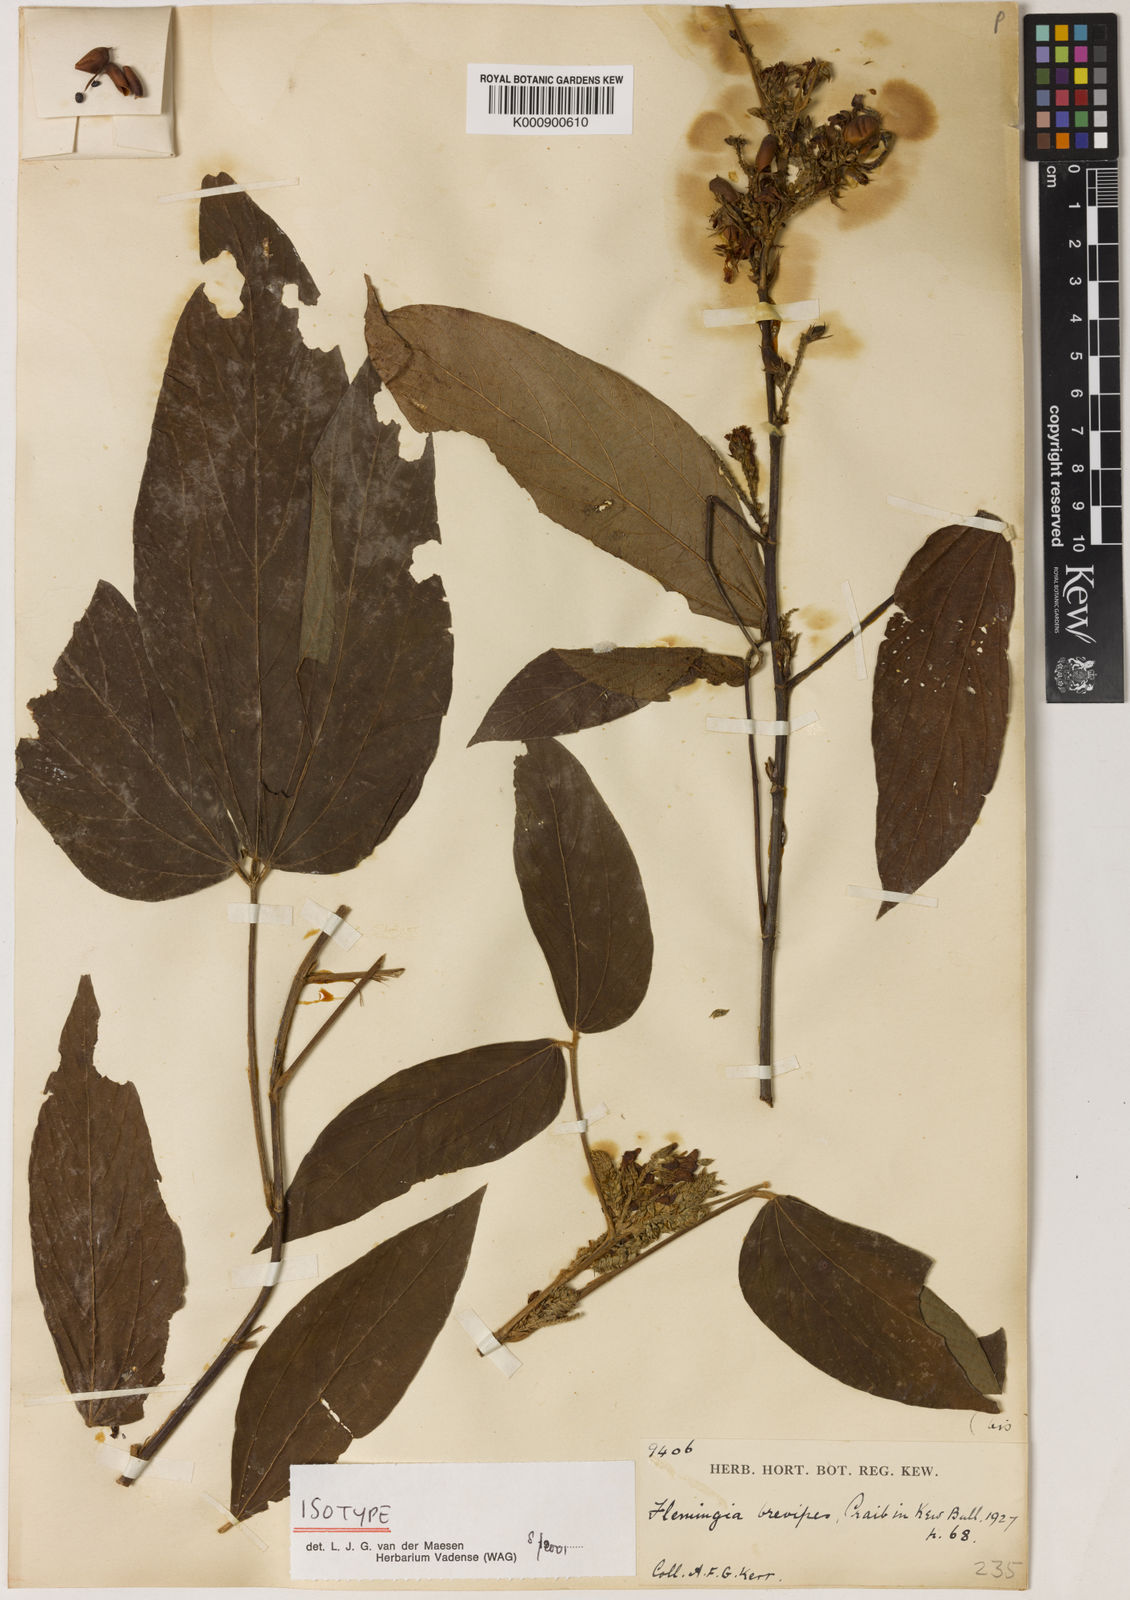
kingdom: Plantae
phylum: Tracheophyta
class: Magnoliopsida
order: Fabales
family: Fabaceae
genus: Flemingia
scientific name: Flemingia macrophylla
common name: Flemingia
